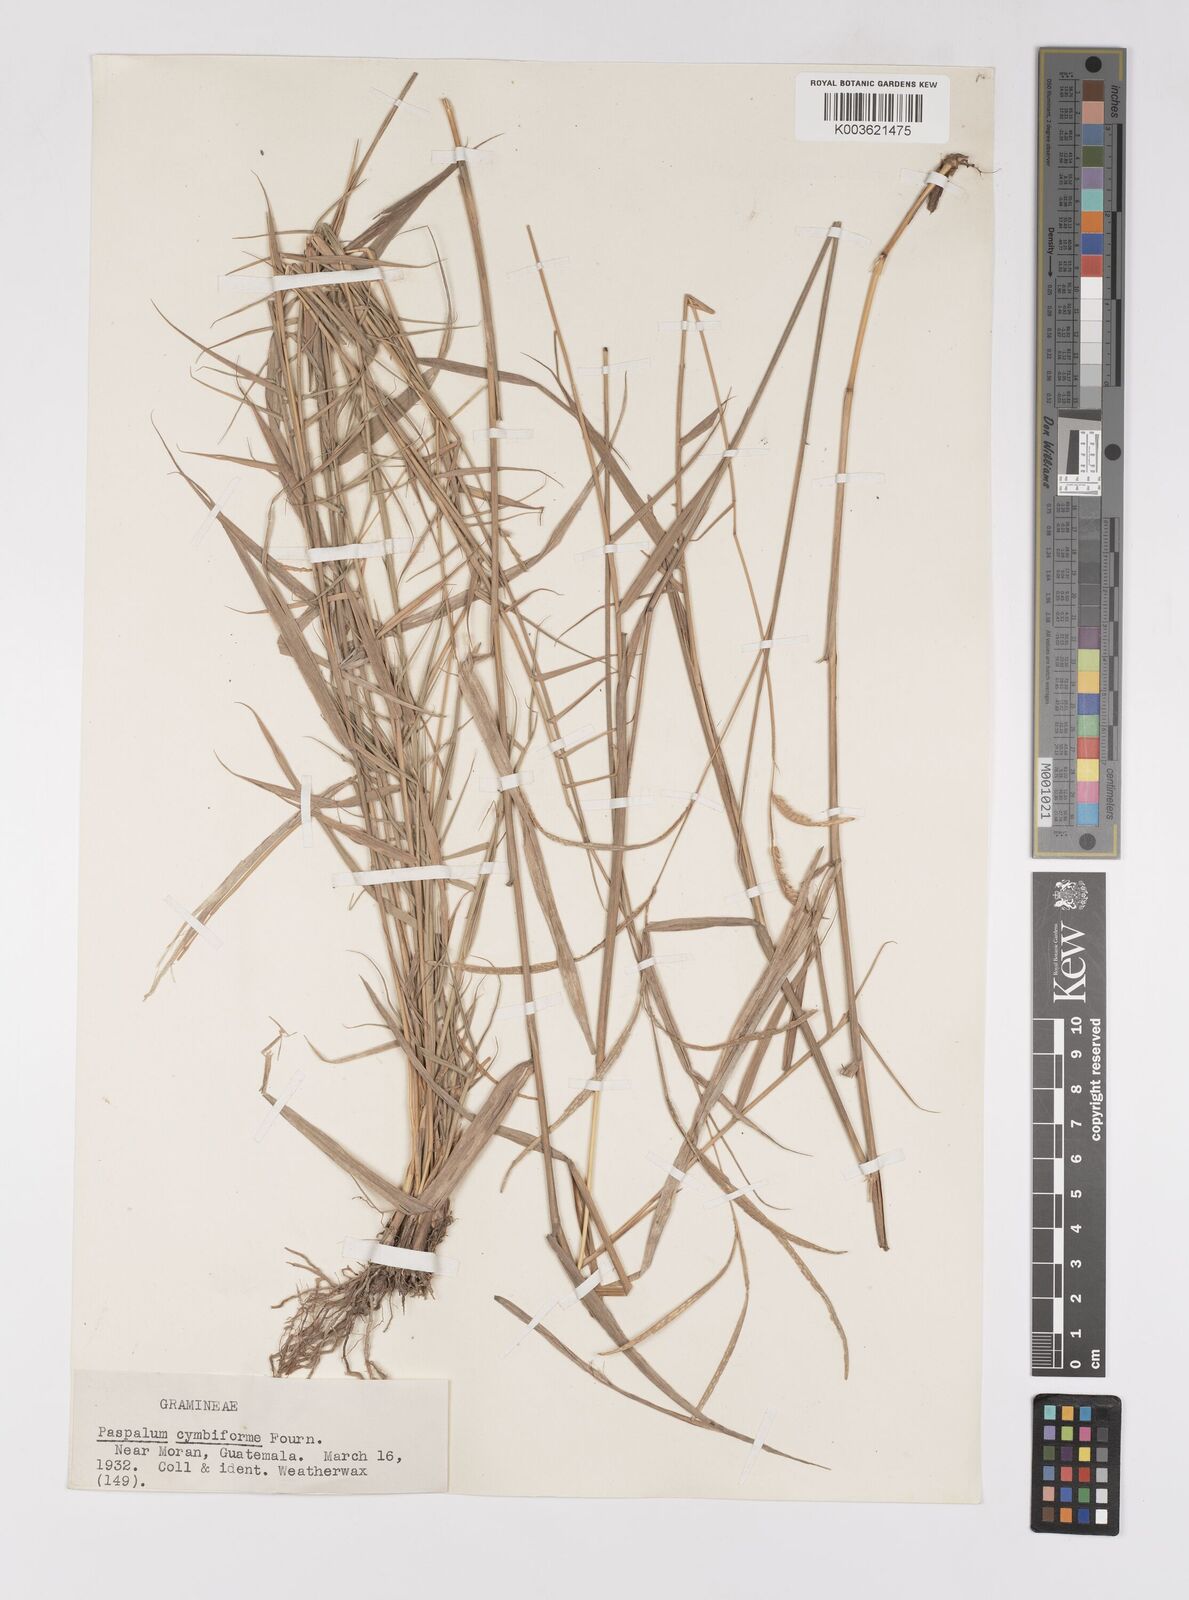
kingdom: Plantae
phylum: Tracheophyta
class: Liliopsida
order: Poales
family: Poaceae
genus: Paspalum
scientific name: Paspalum cymbiforme
